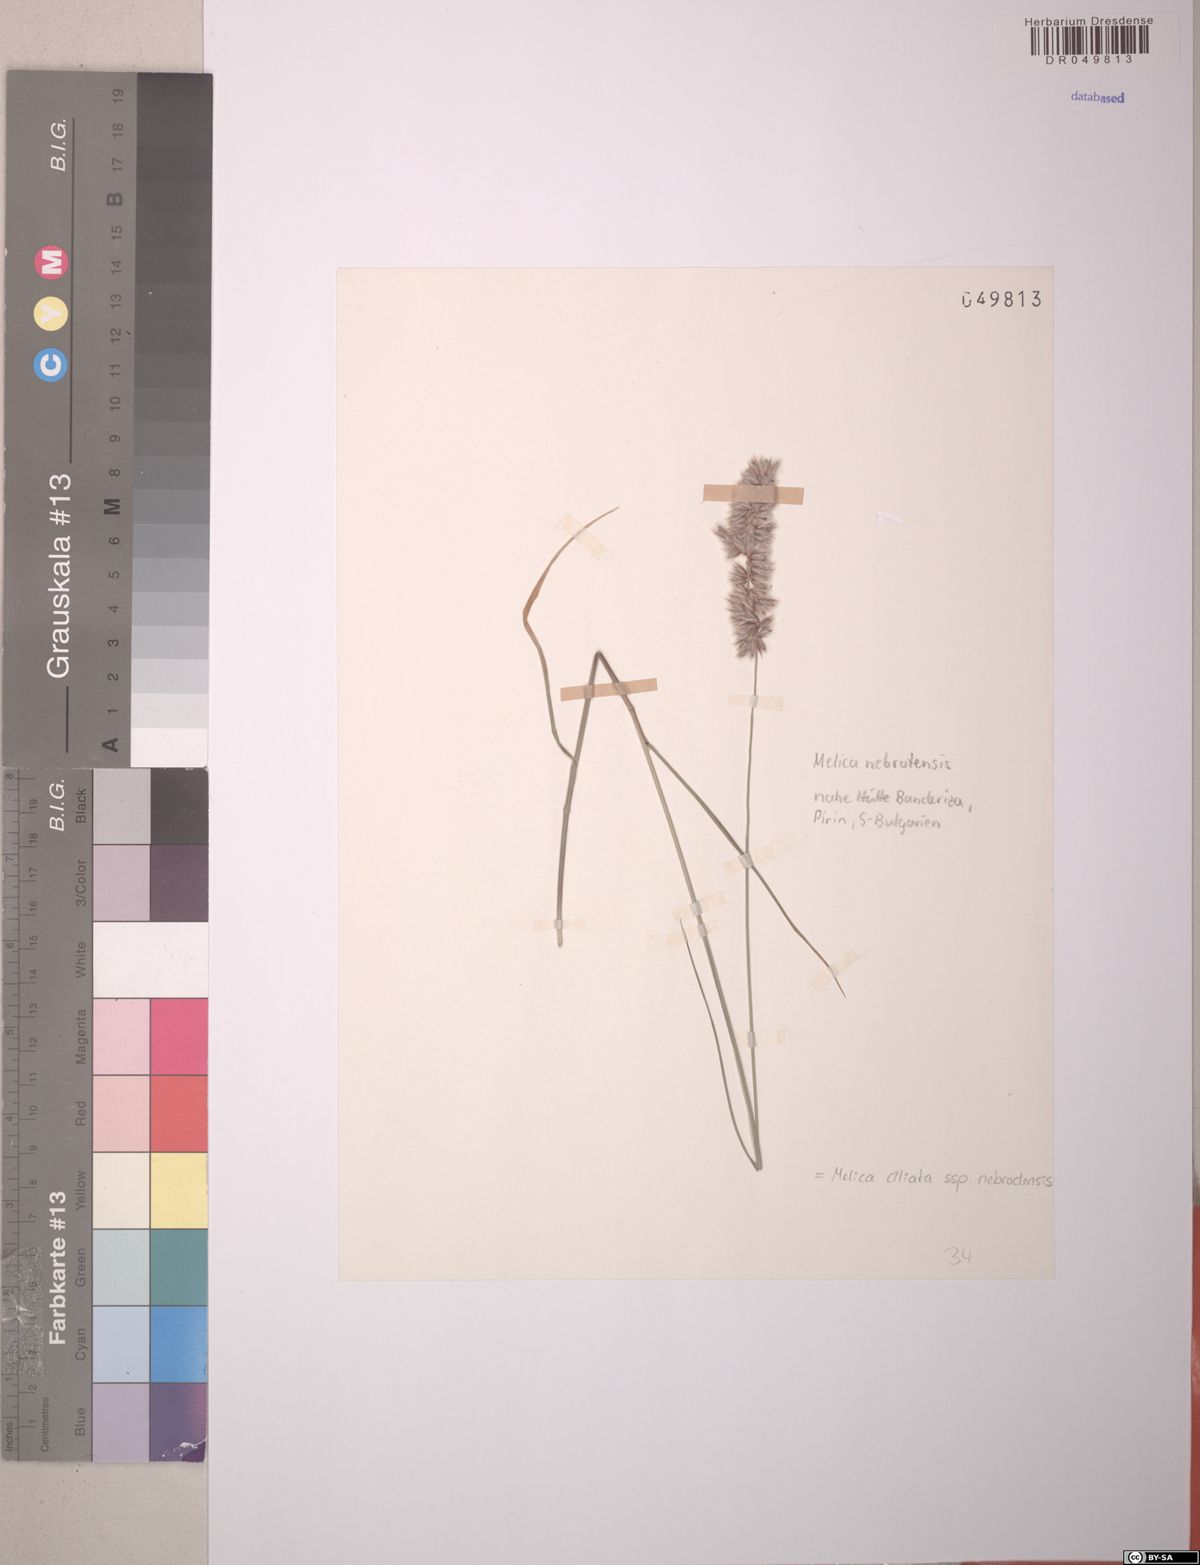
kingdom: Plantae
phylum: Tracheophyta
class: Liliopsida
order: Poales
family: Poaceae
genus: Melica
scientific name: Melica ciliata
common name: Hairy melicgrass
